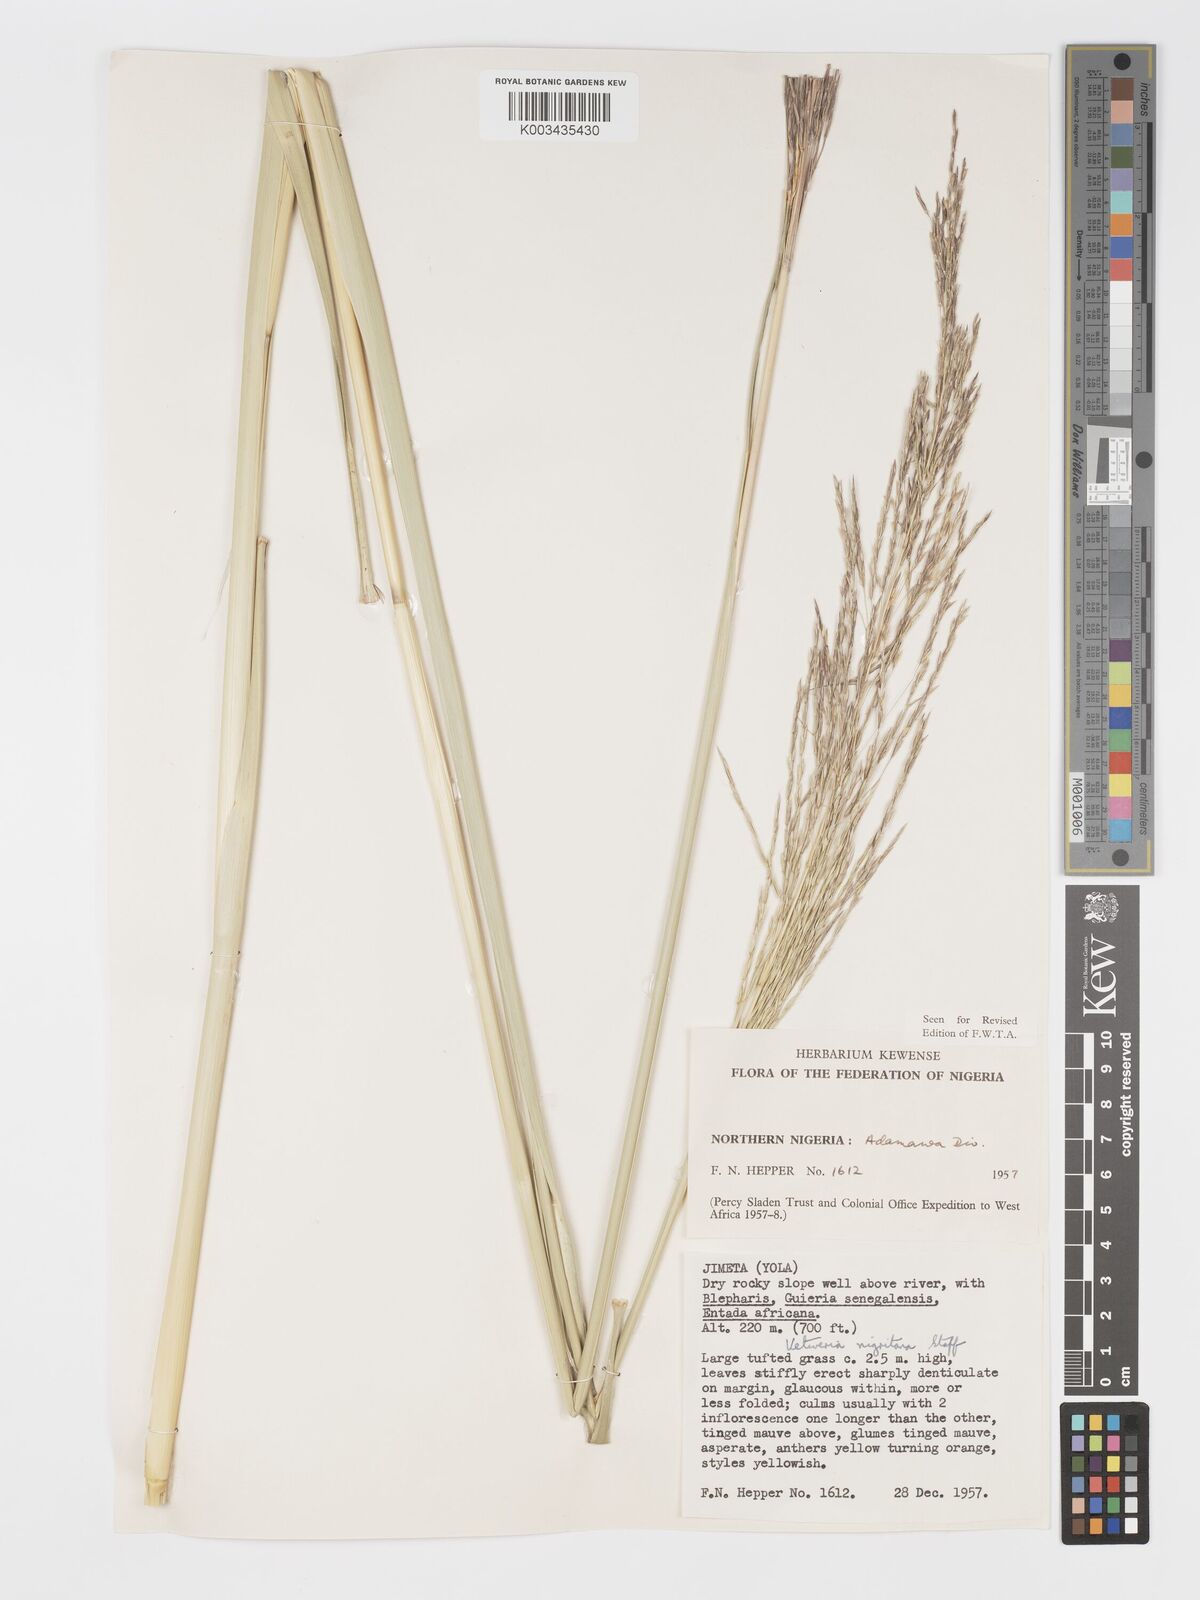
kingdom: Plantae
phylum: Tracheophyta
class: Liliopsida
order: Poales
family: Poaceae
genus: Chrysopogon
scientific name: Chrysopogon nigritanus
